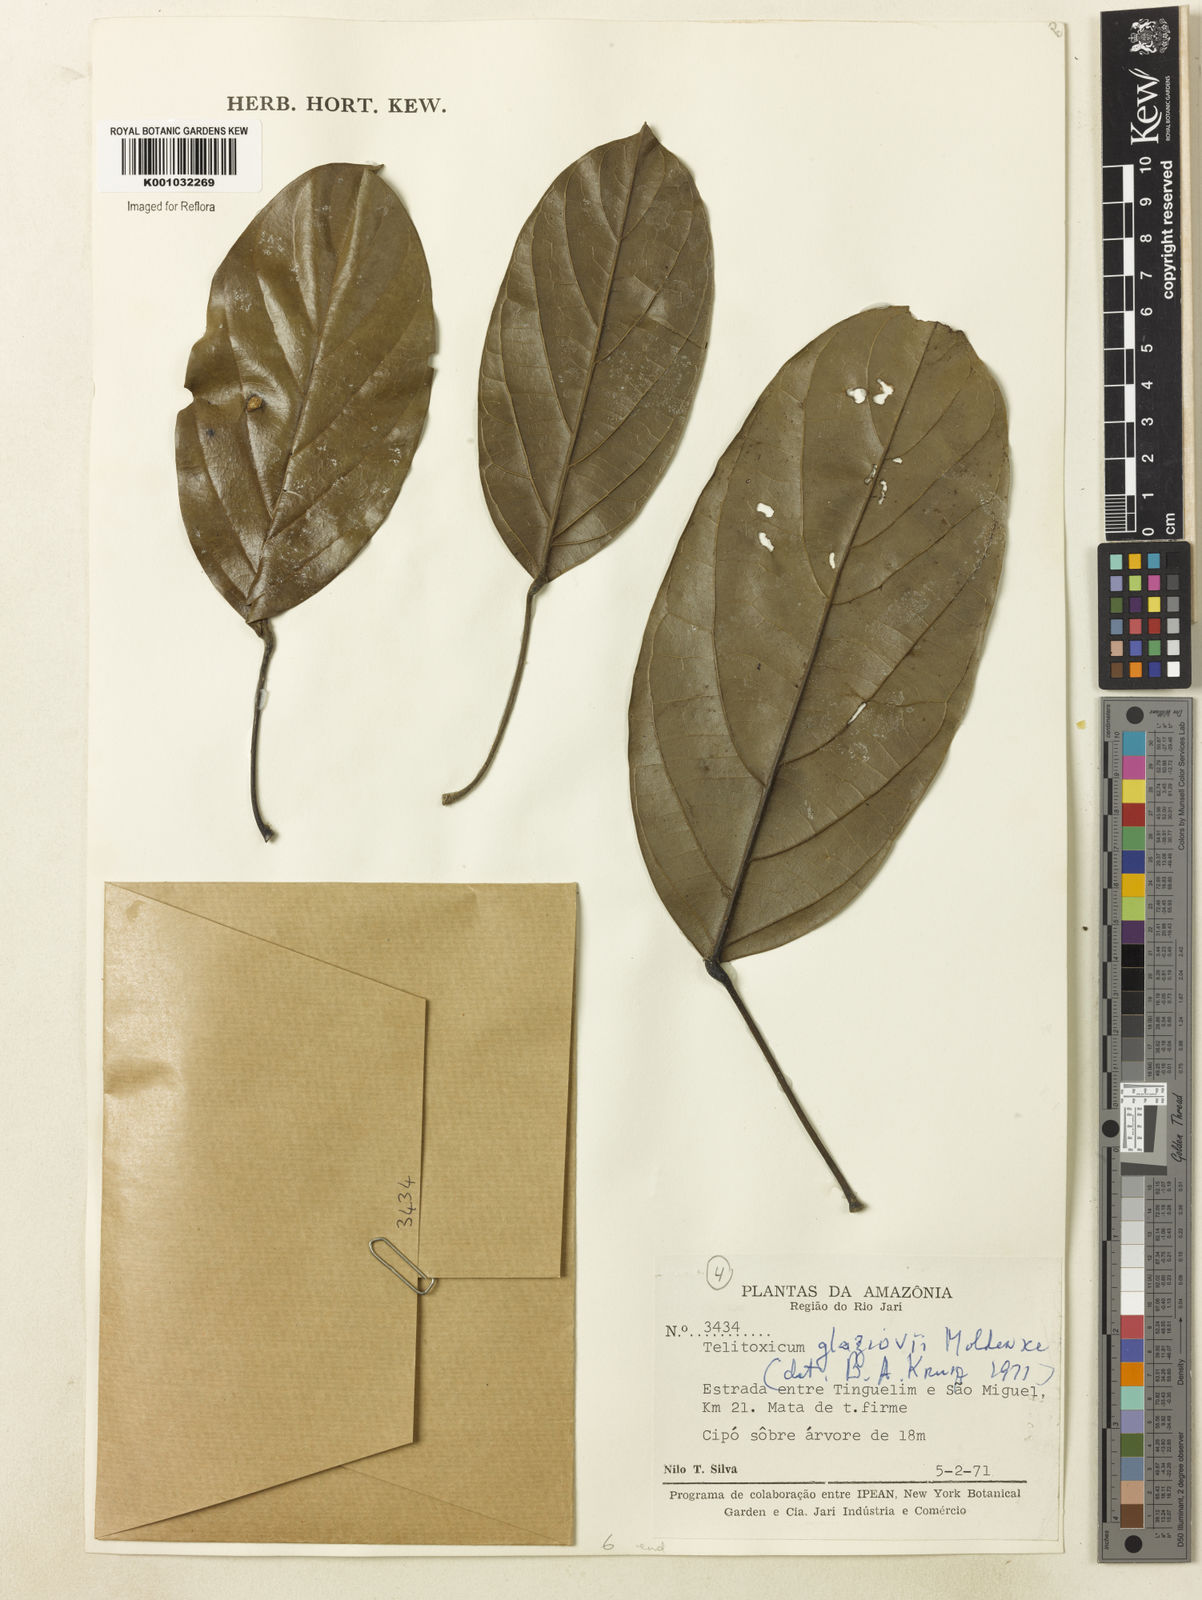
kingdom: Plantae
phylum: Tracheophyta
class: Magnoliopsida
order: Ranunculales
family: Menispermaceae
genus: Telitoxicum
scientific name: Telitoxicum glaziovii
